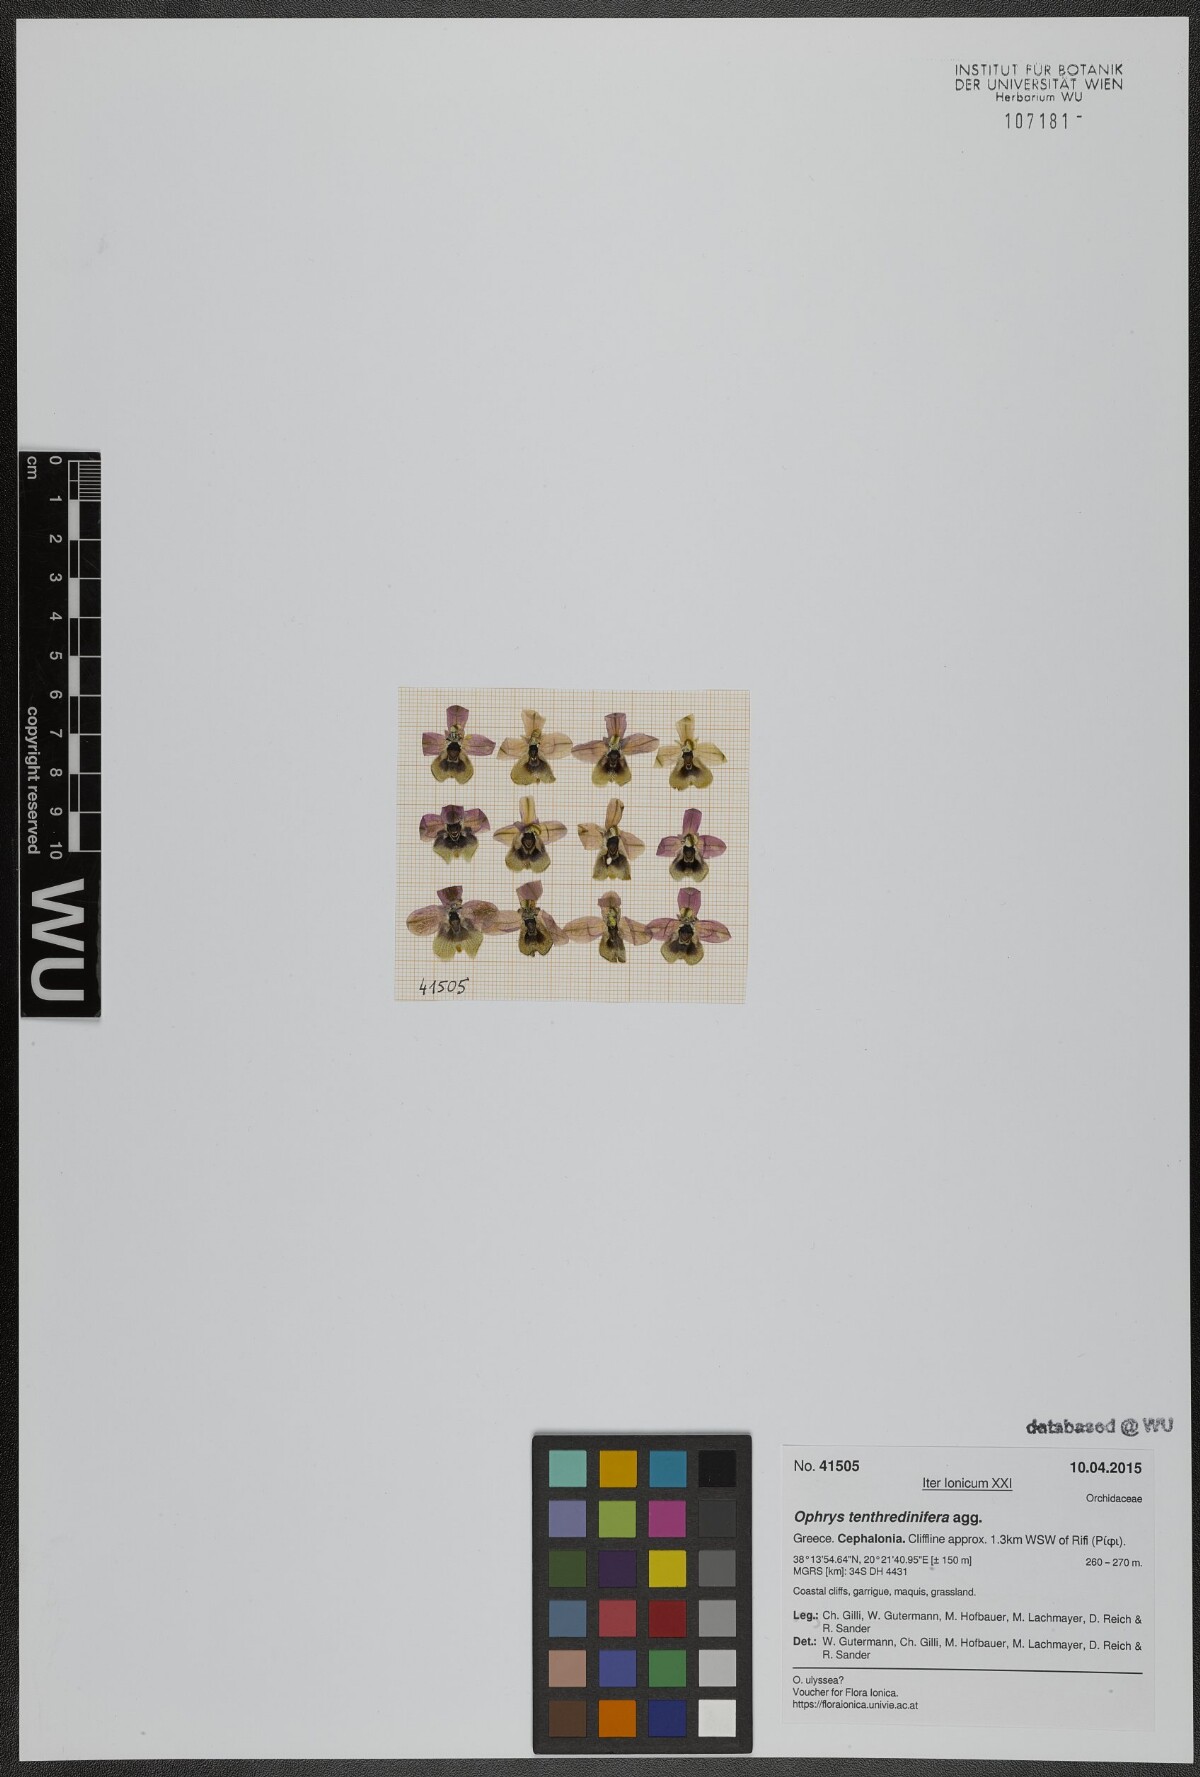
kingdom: Plantae
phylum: Tracheophyta
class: Liliopsida
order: Asparagales
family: Orchidaceae
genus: Ophrys
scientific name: Ophrys tenthredinifera
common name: Sawfly orchid
